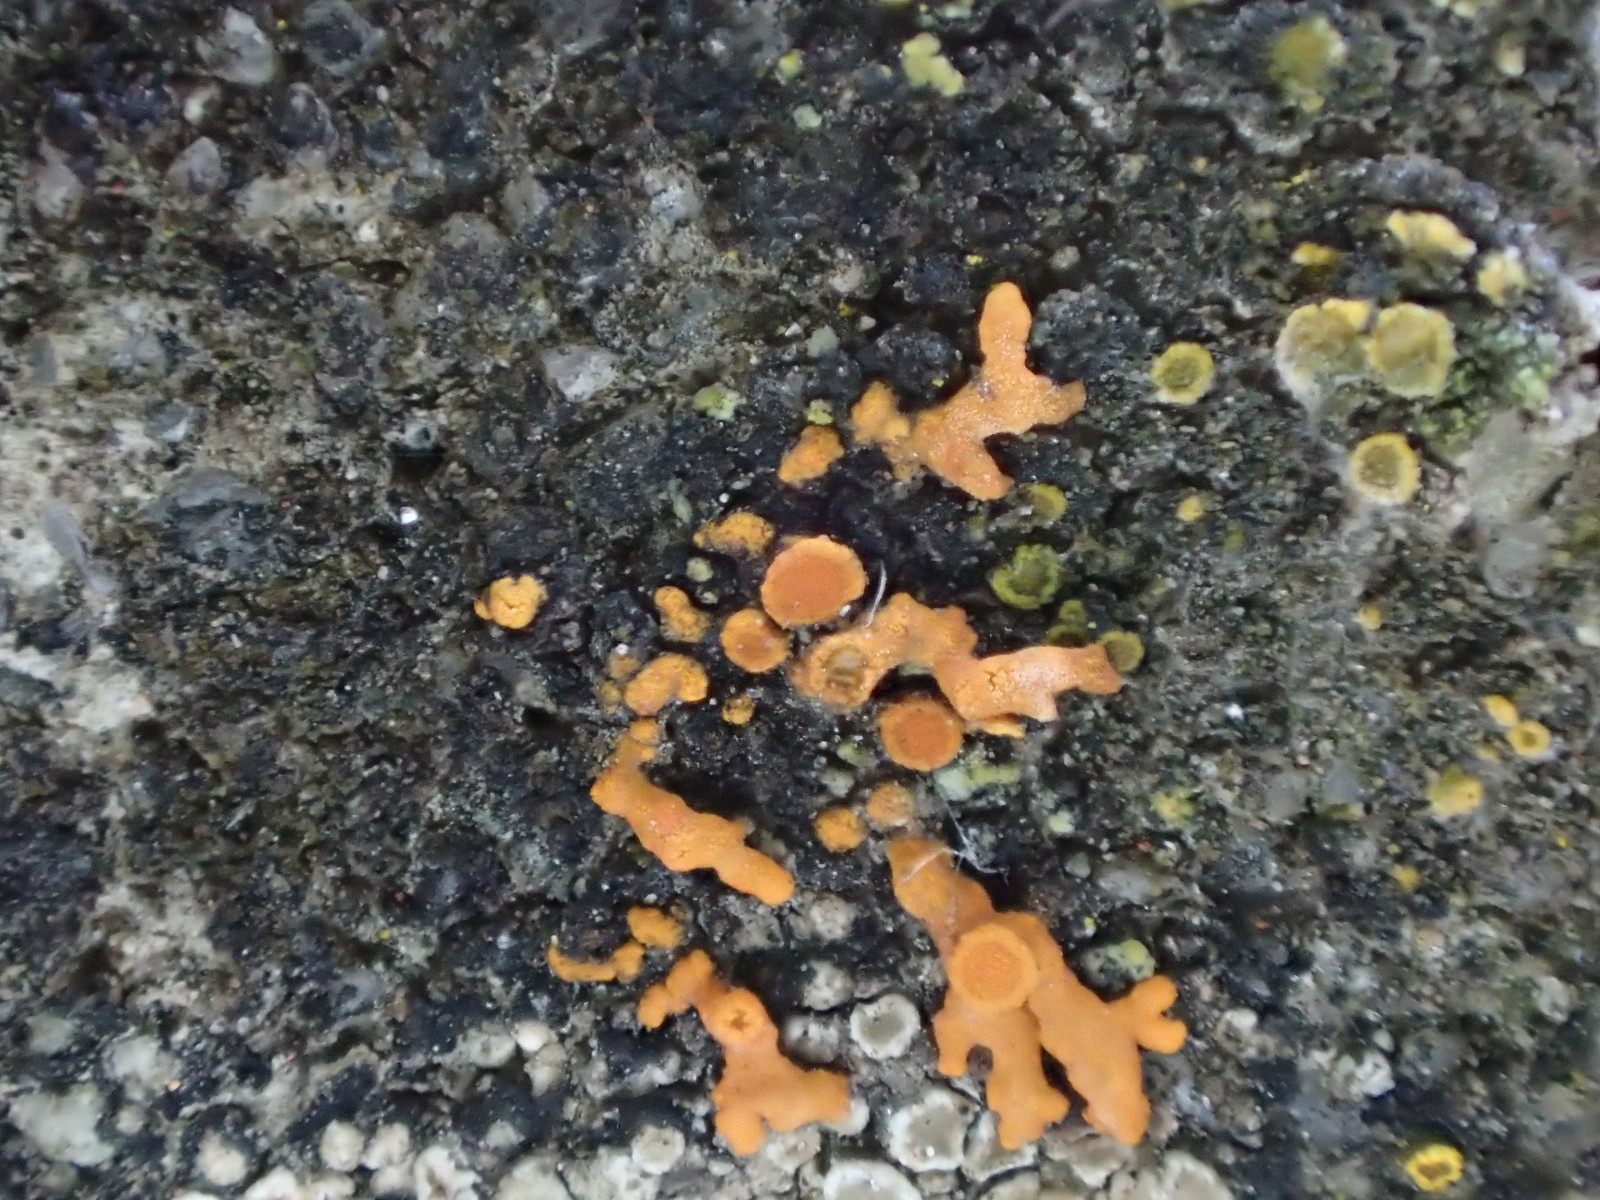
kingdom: Fungi
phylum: Ascomycota
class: Lecanoromycetes
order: Teloschistales
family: Teloschistaceae
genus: Xanthoria
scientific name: Xanthoria elegans
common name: fjeld-væggelav
